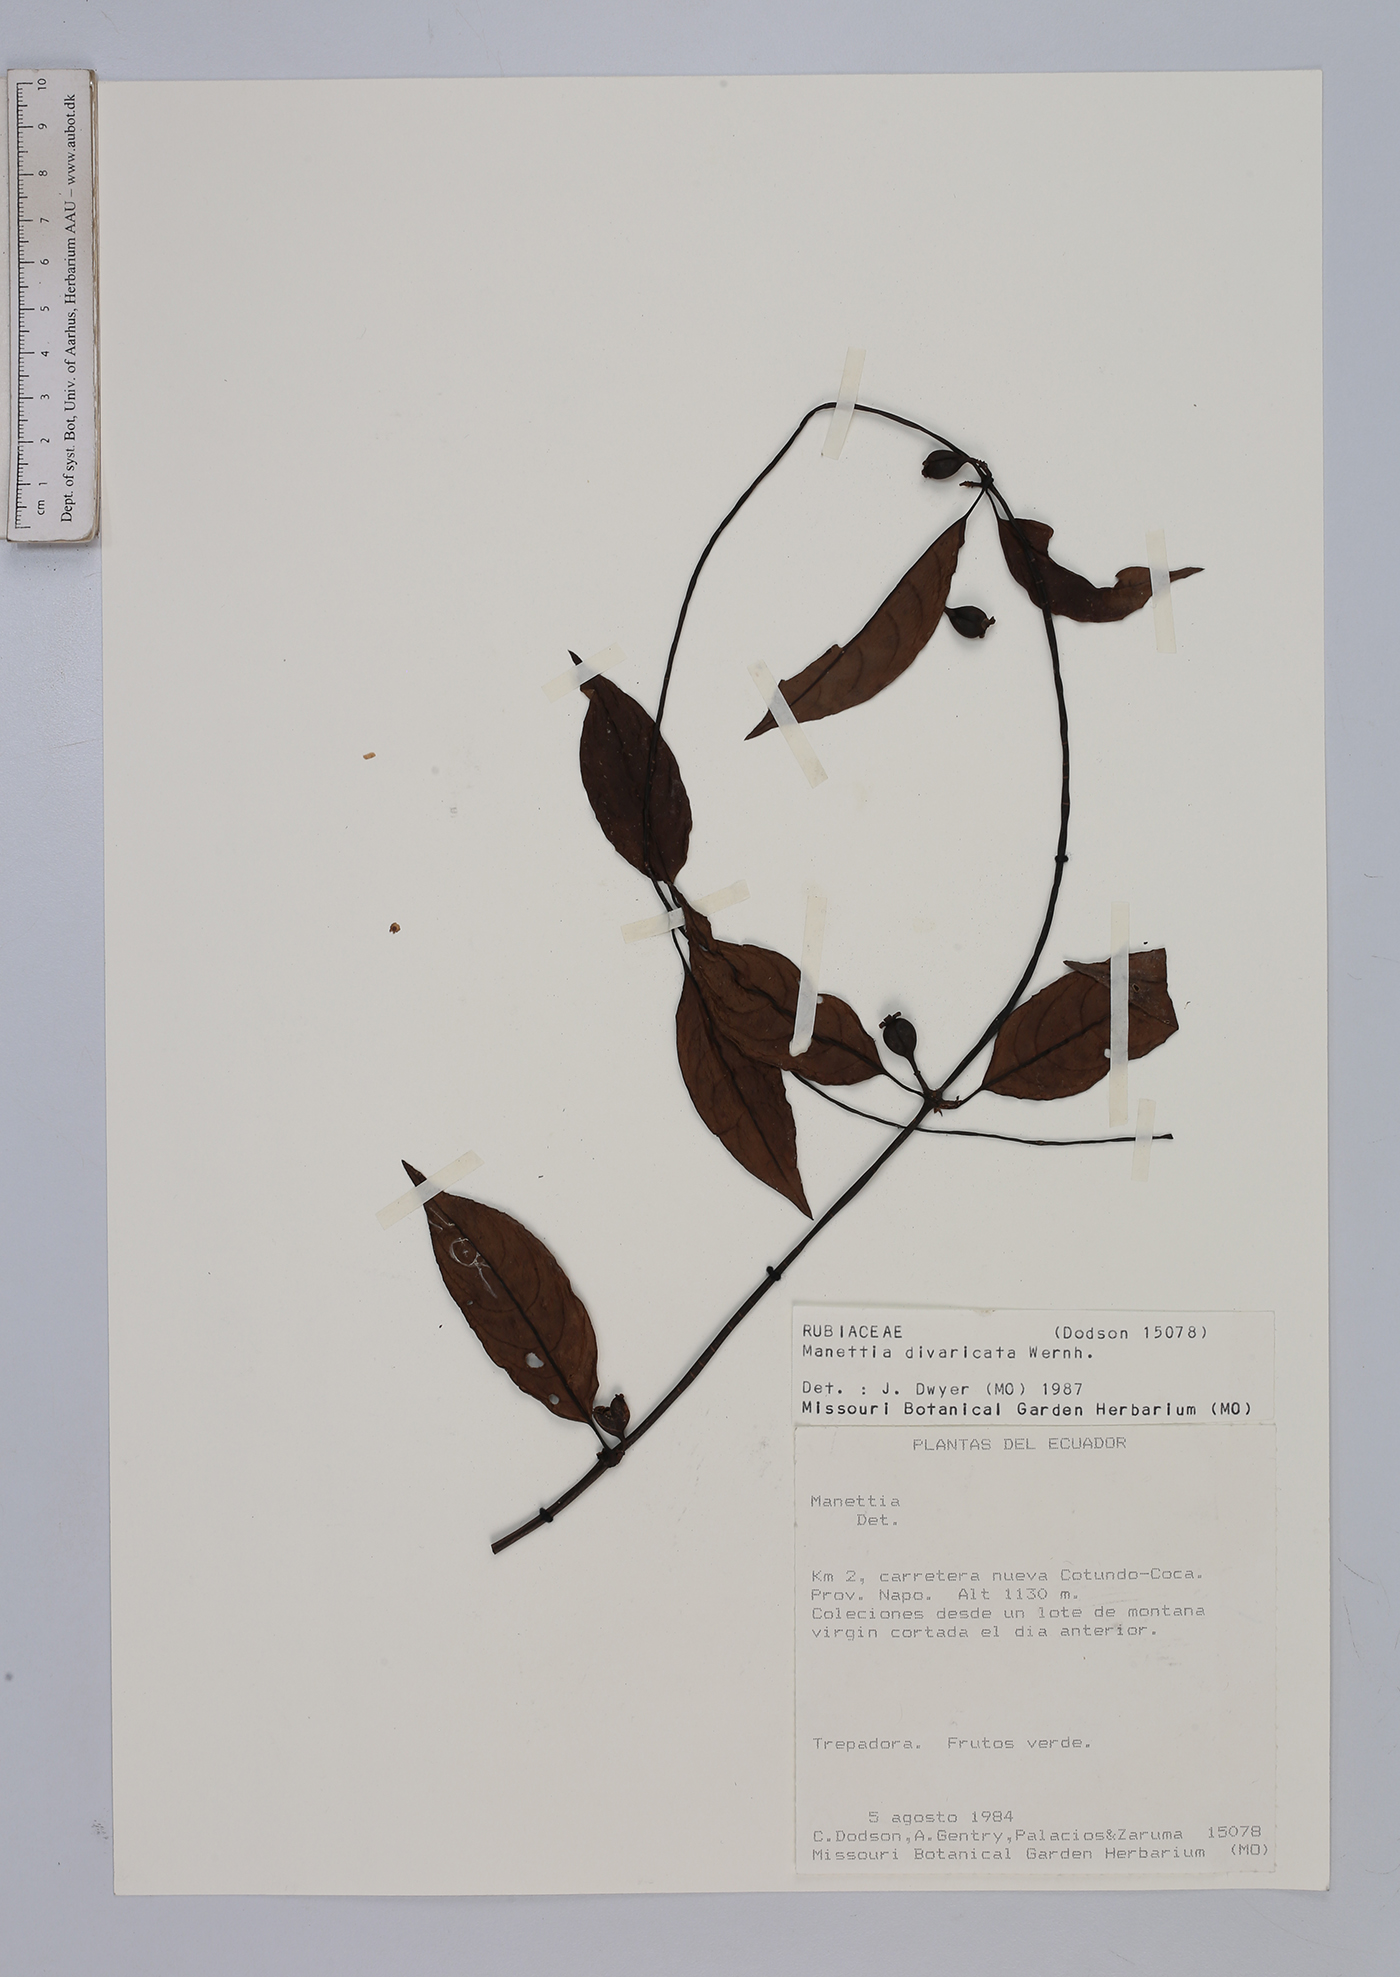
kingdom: Plantae
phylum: Tracheophyta
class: Magnoliopsida
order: Gentianales
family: Rubiaceae
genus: Manettia
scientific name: Manettia divaricata
